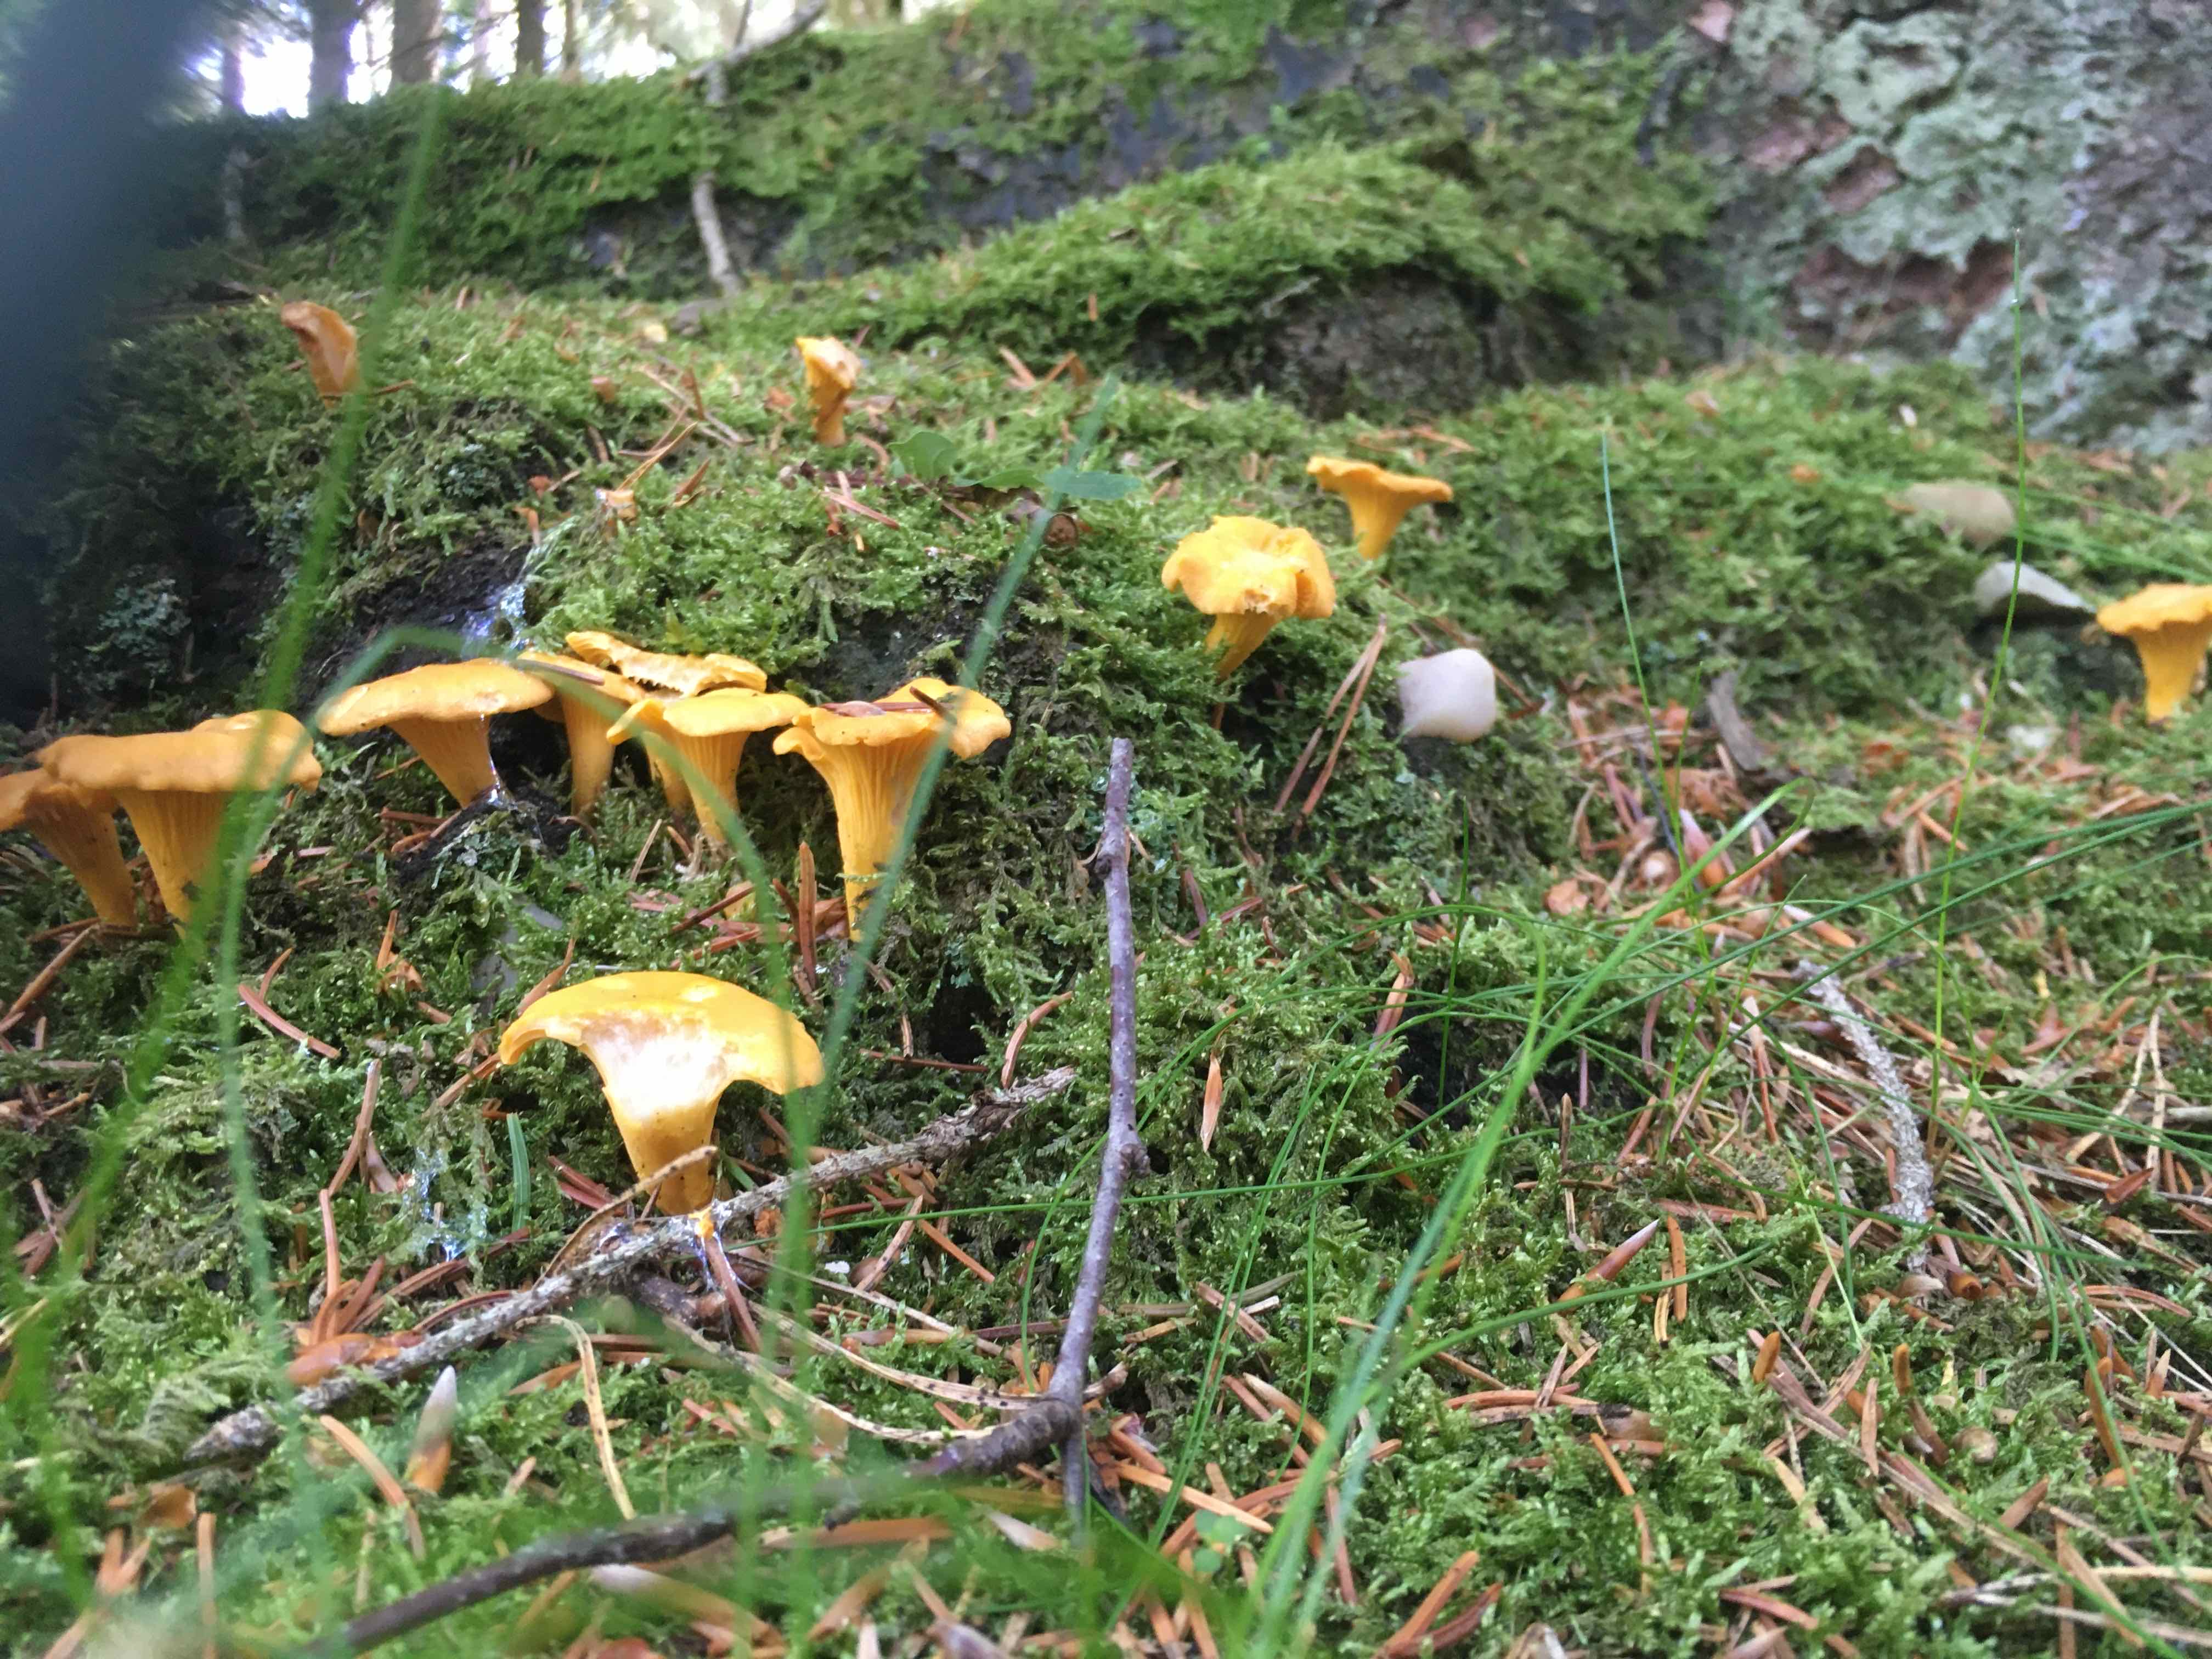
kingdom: Fungi
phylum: Basidiomycota
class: Agaricomycetes
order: Cantharellales
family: Hydnaceae
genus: Cantharellus
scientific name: Cantharellus cibarius
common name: almindelig kantarel
